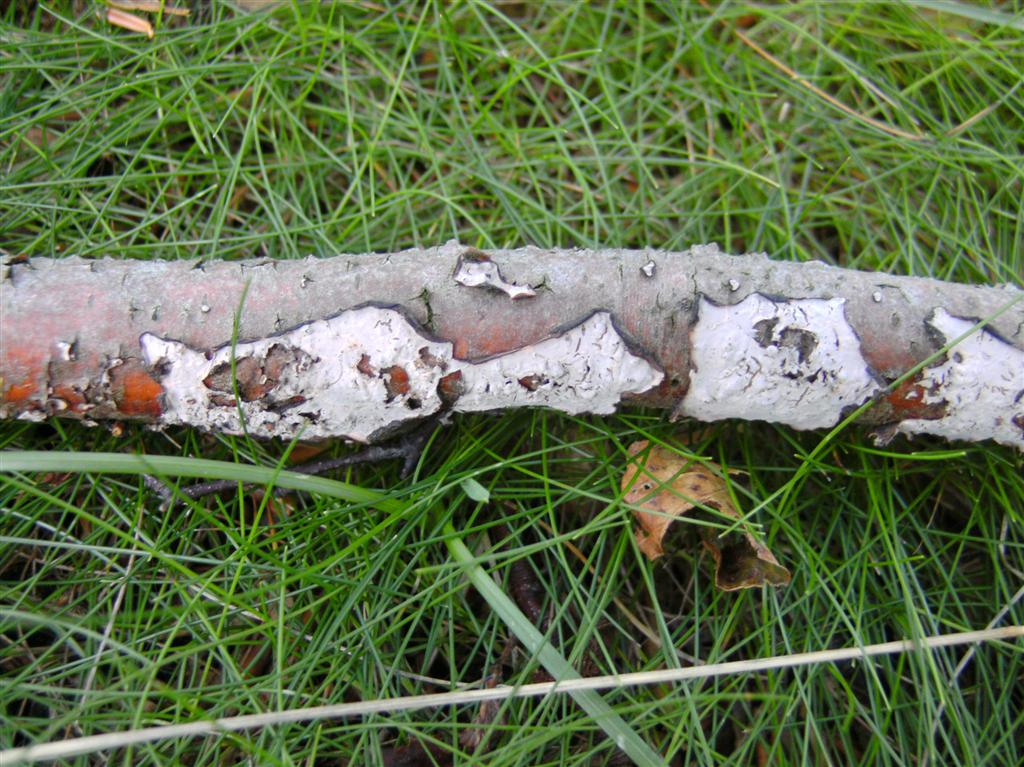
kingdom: Fungi
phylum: Basidiomycota
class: Agaricomycetes
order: Russulales
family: Peniophoraceae
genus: Peniophora
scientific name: Peniophora quercina
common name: ege-voksskind
